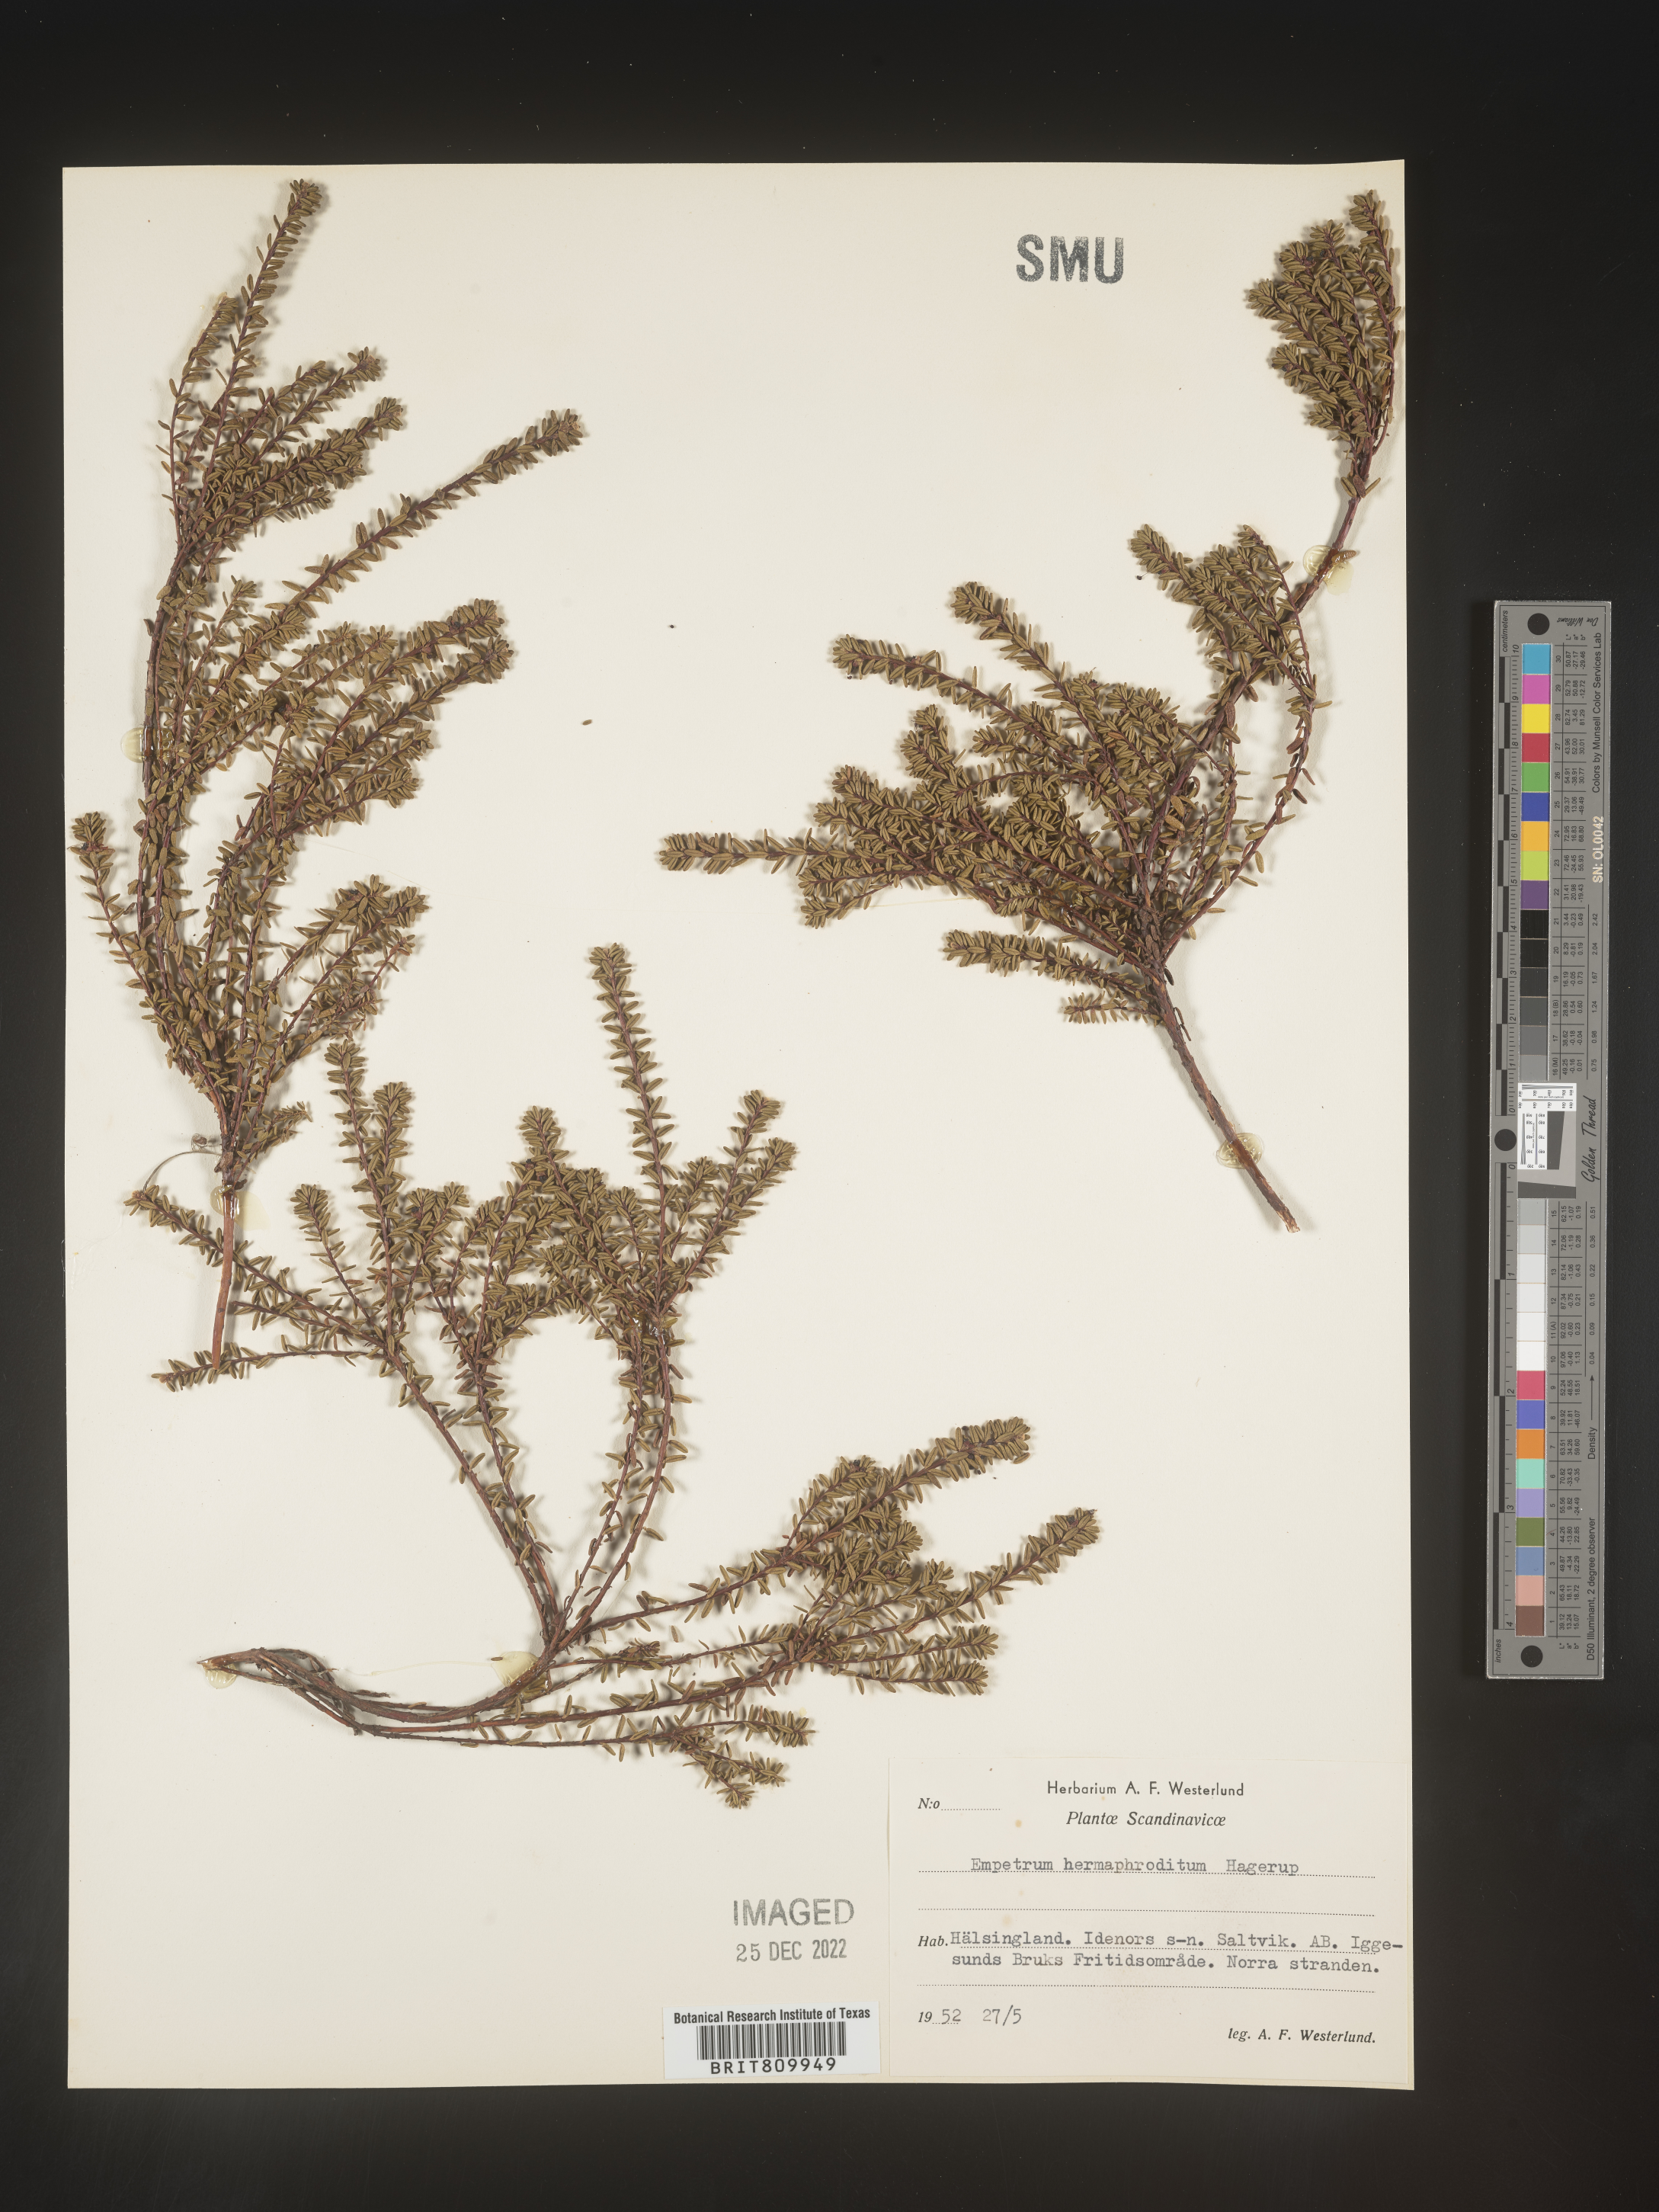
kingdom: Plantae
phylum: Tracheophyta
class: Magnoliopsida
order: Ericales
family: Ericaceae
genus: Empetrum
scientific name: Empetrum
